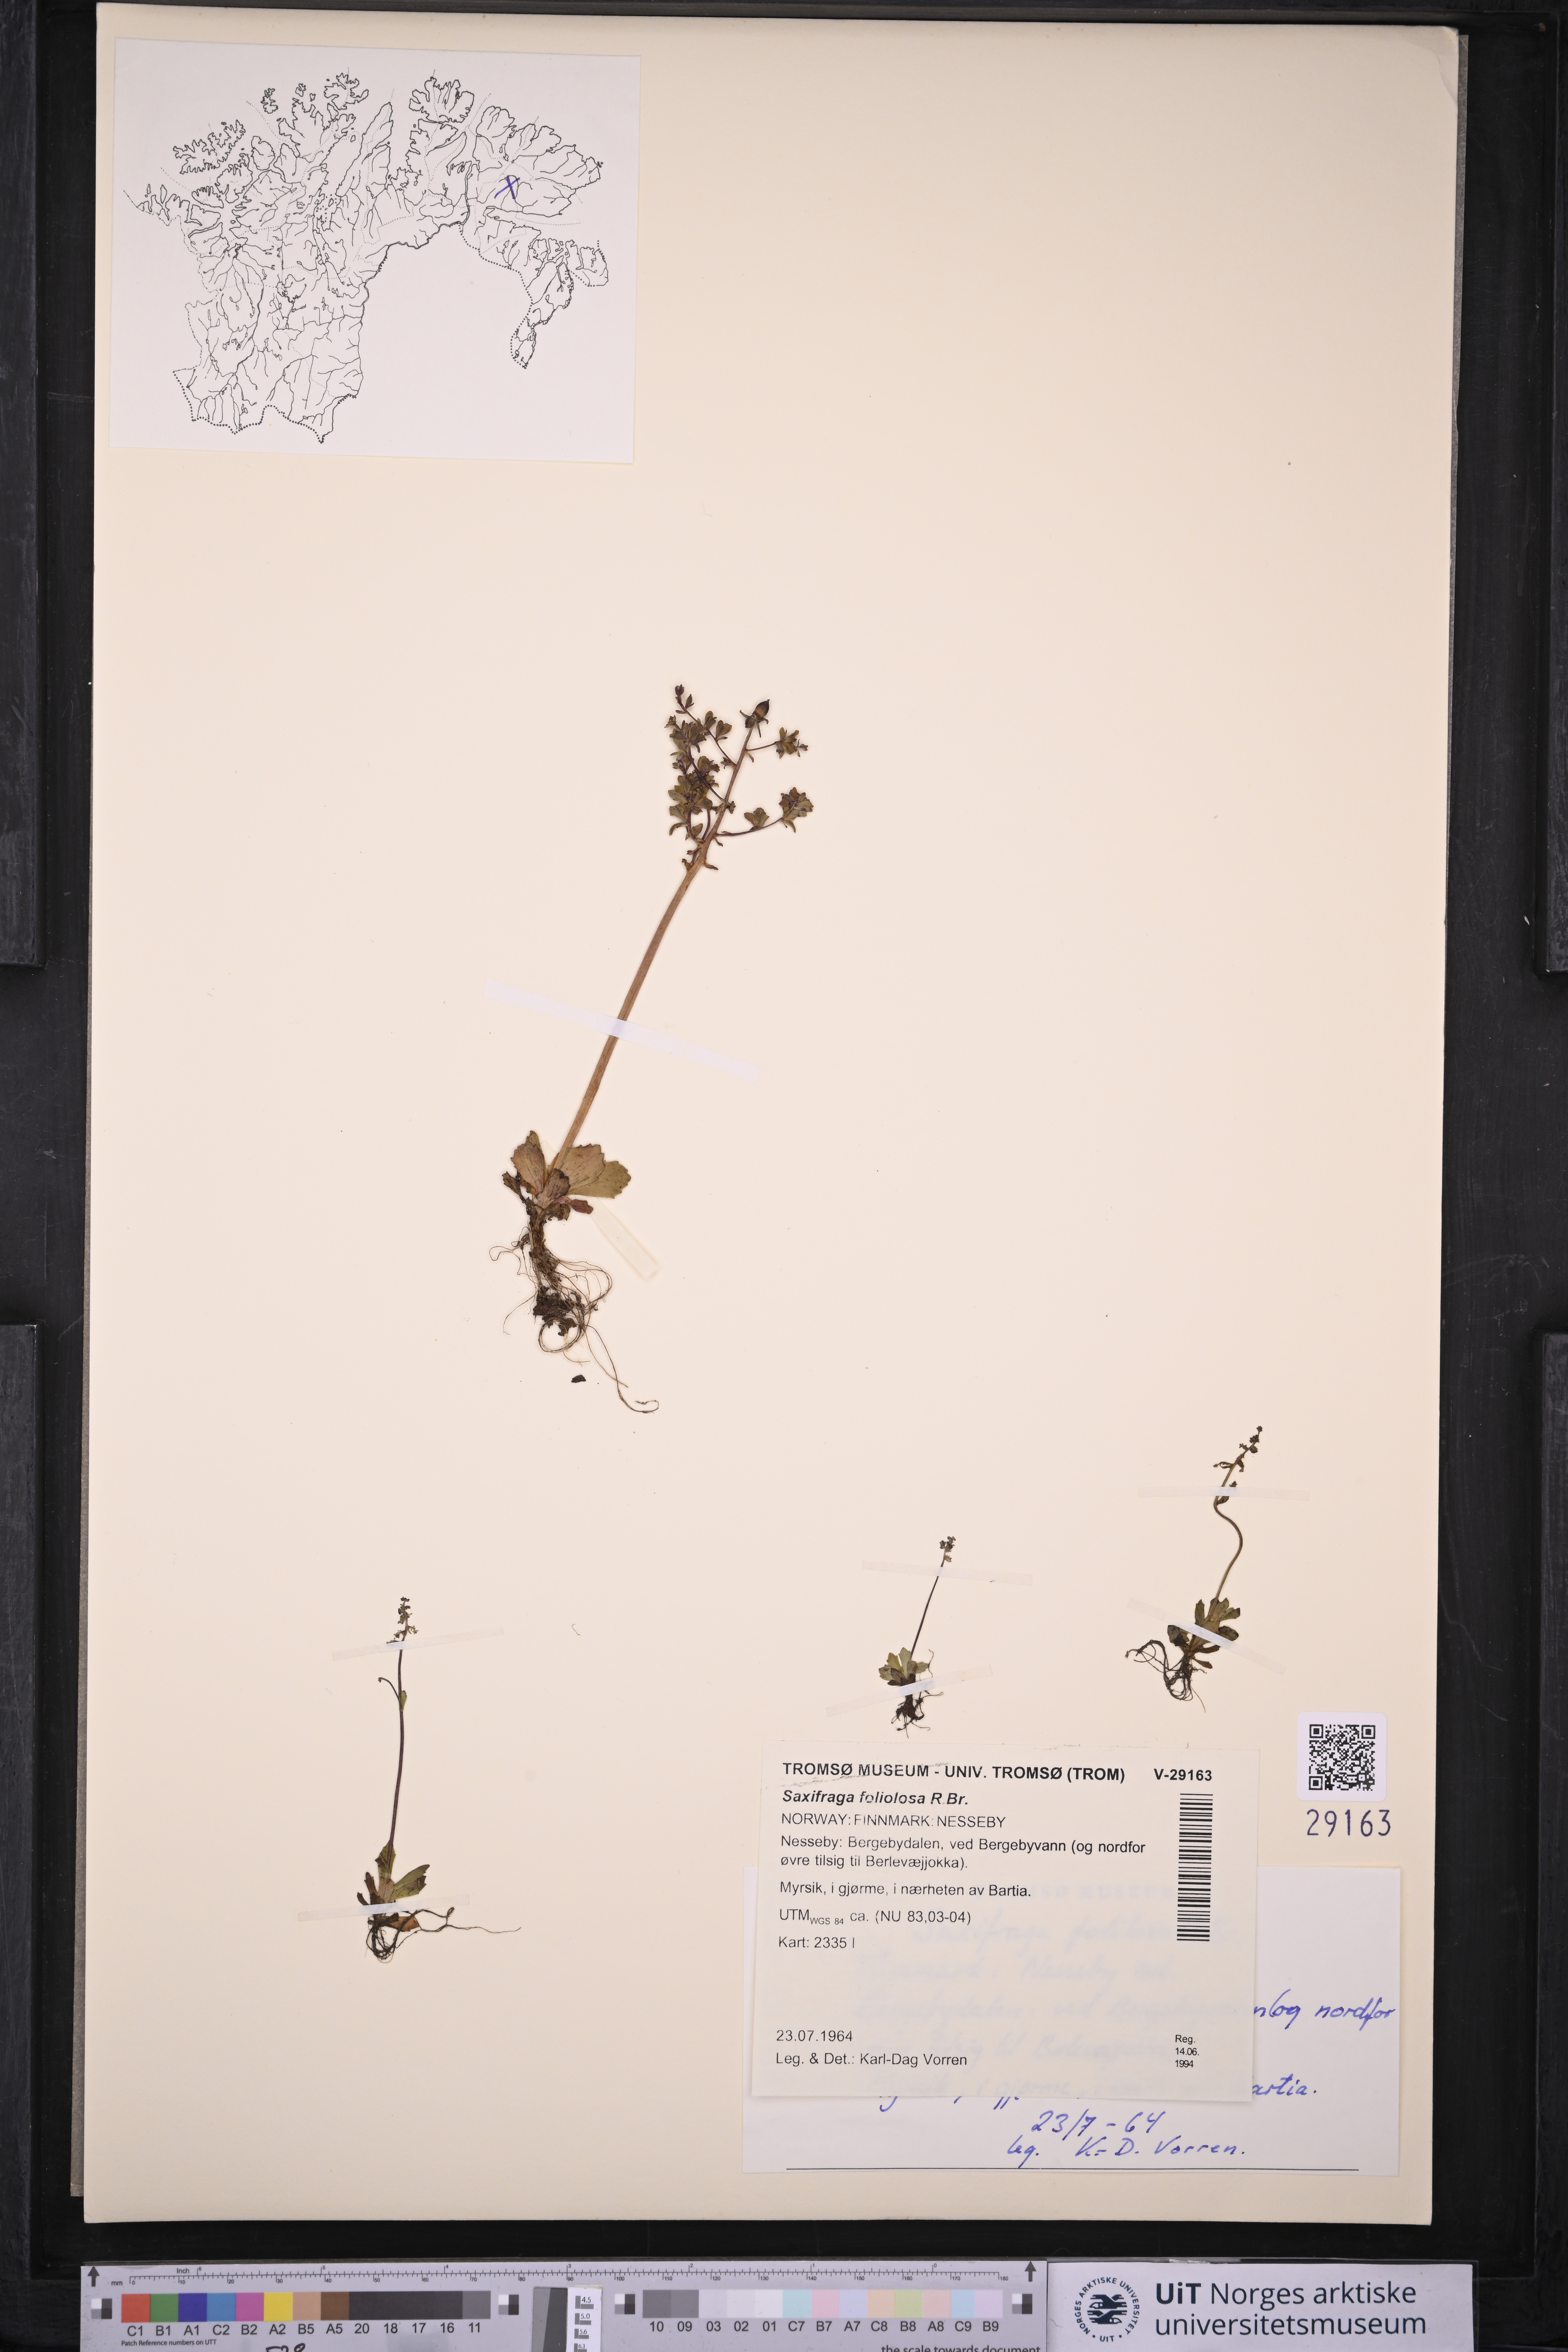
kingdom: Plantae
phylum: Tracheophyta
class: Magnoliopsida
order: Saxifragales
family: Saxifragaceae
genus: Micranthes
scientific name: Micranthes foliolosa
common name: Leafystem saxifrage
